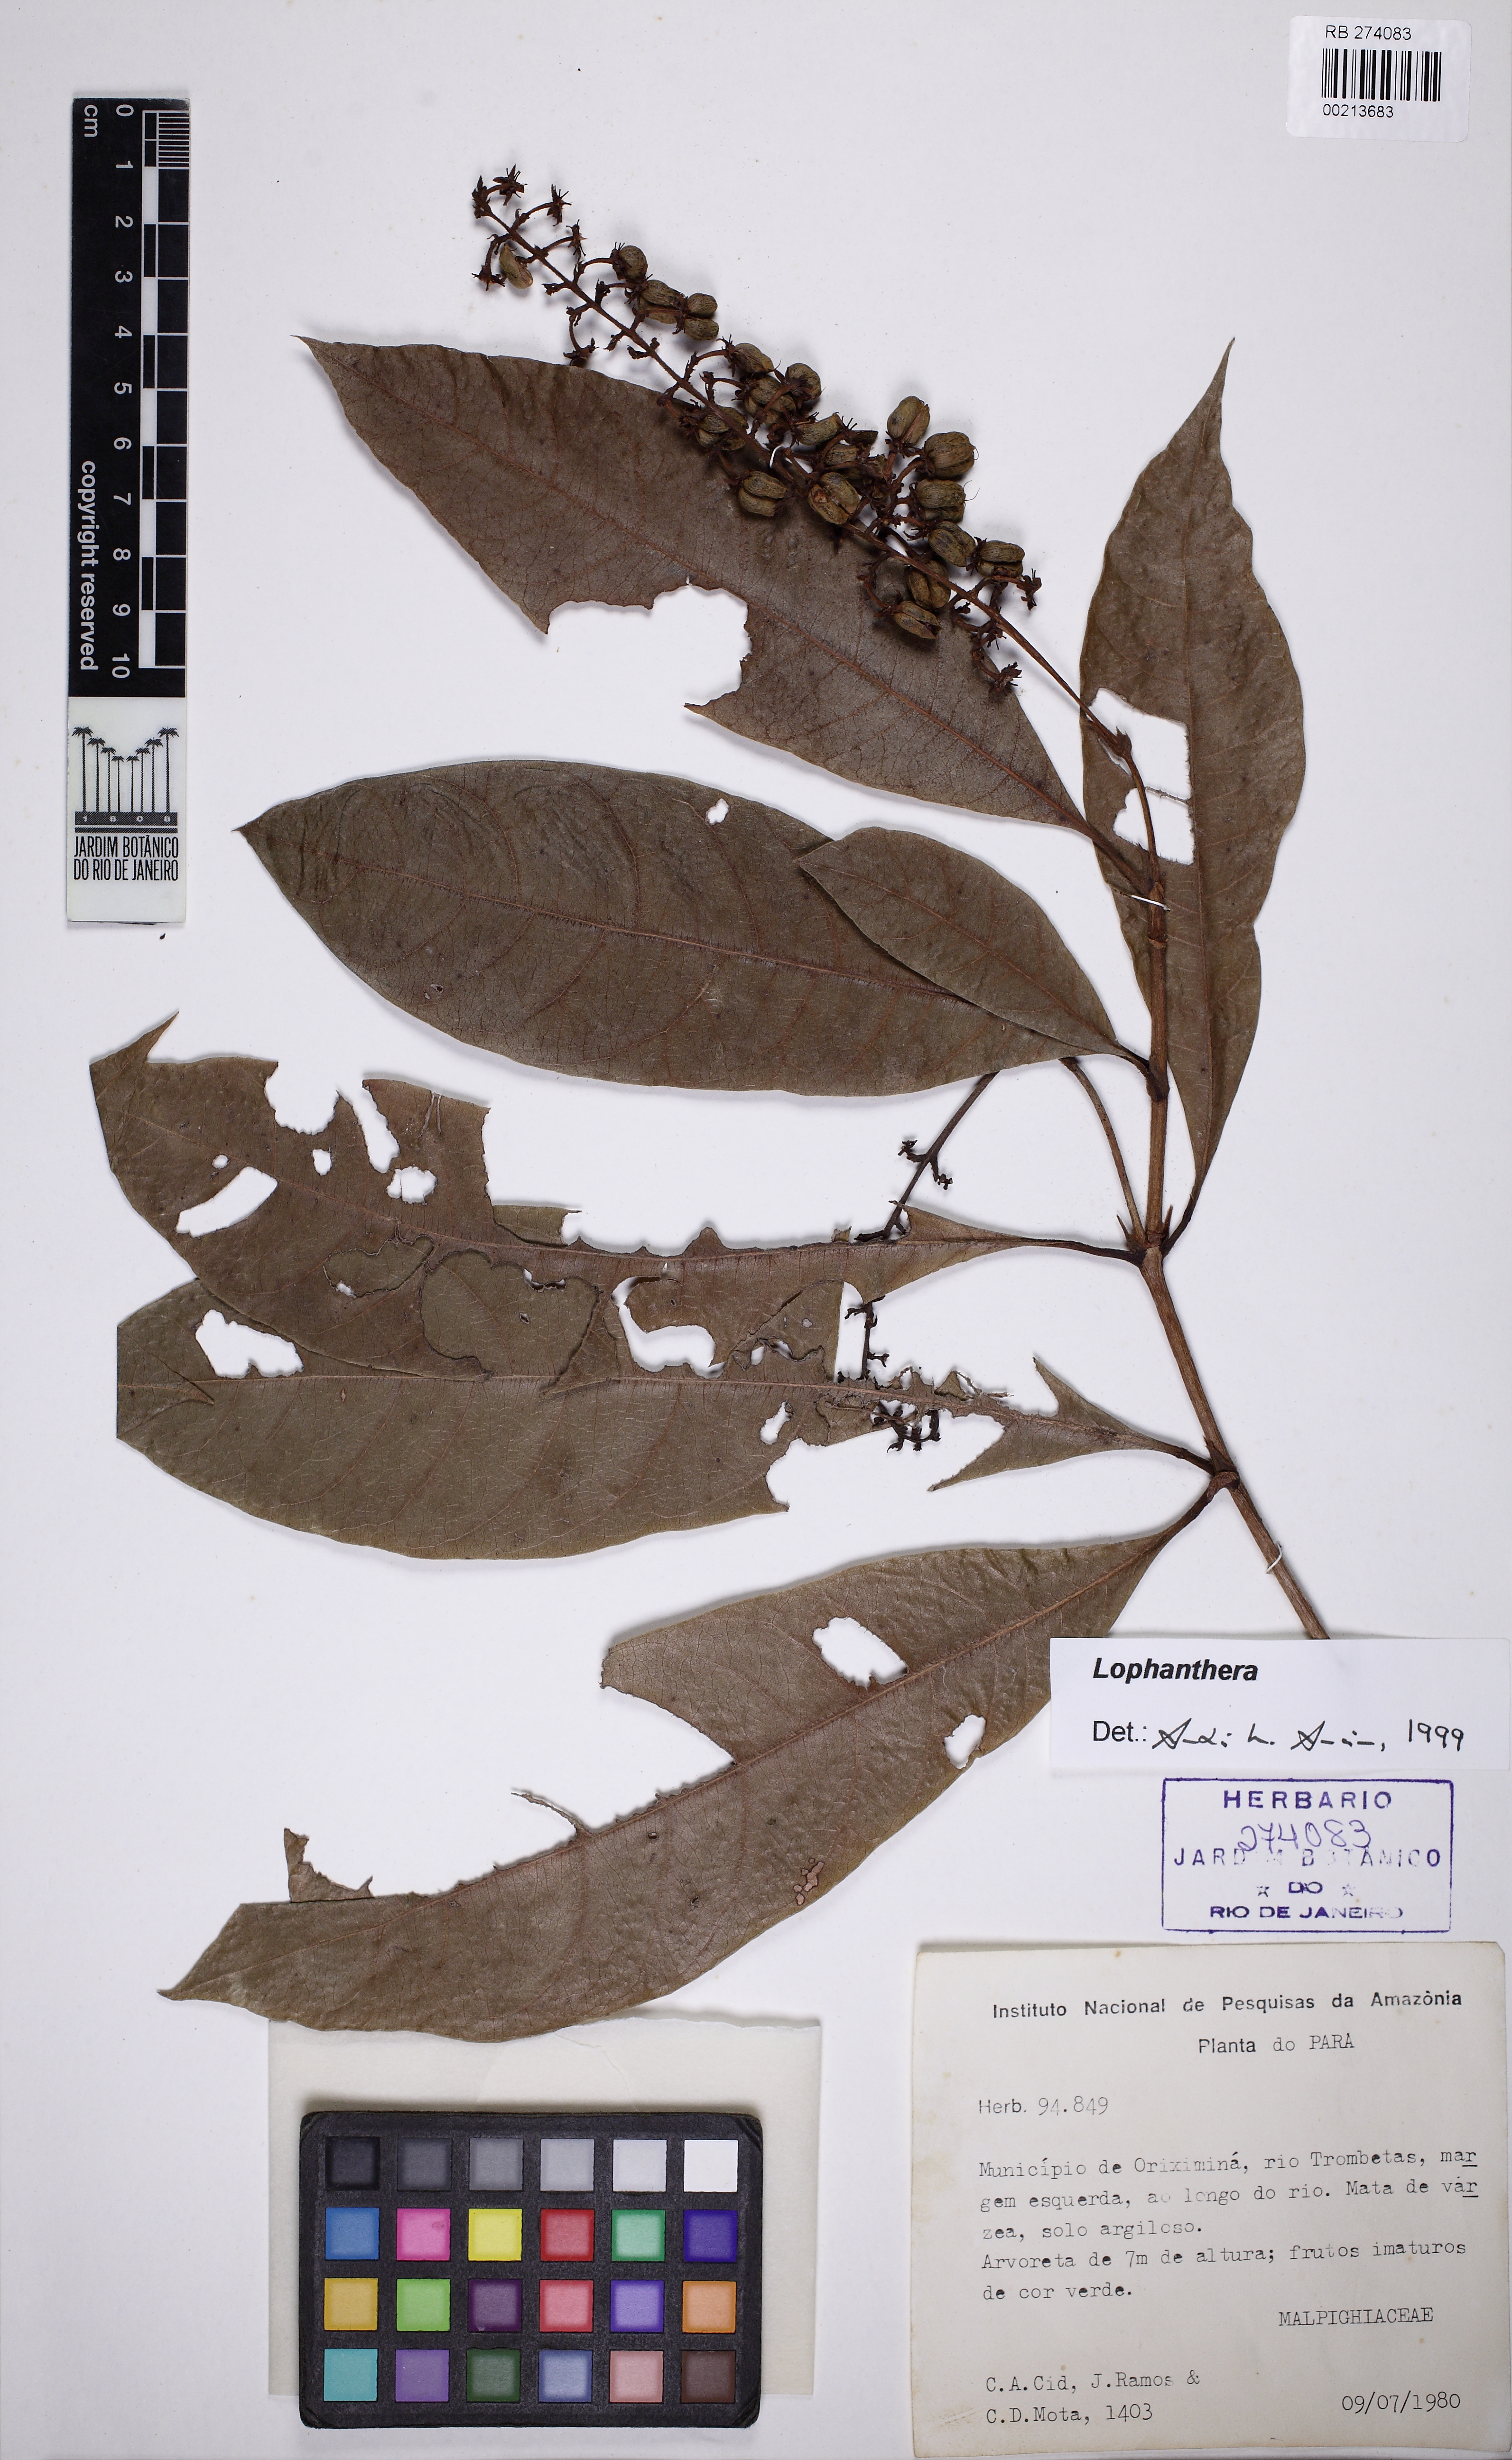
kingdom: Plantae
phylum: Tracheophyta
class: Magnoliopsida
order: Malpighiales
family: Malpighiaceae
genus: Lophanthera
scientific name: Lophanthera
